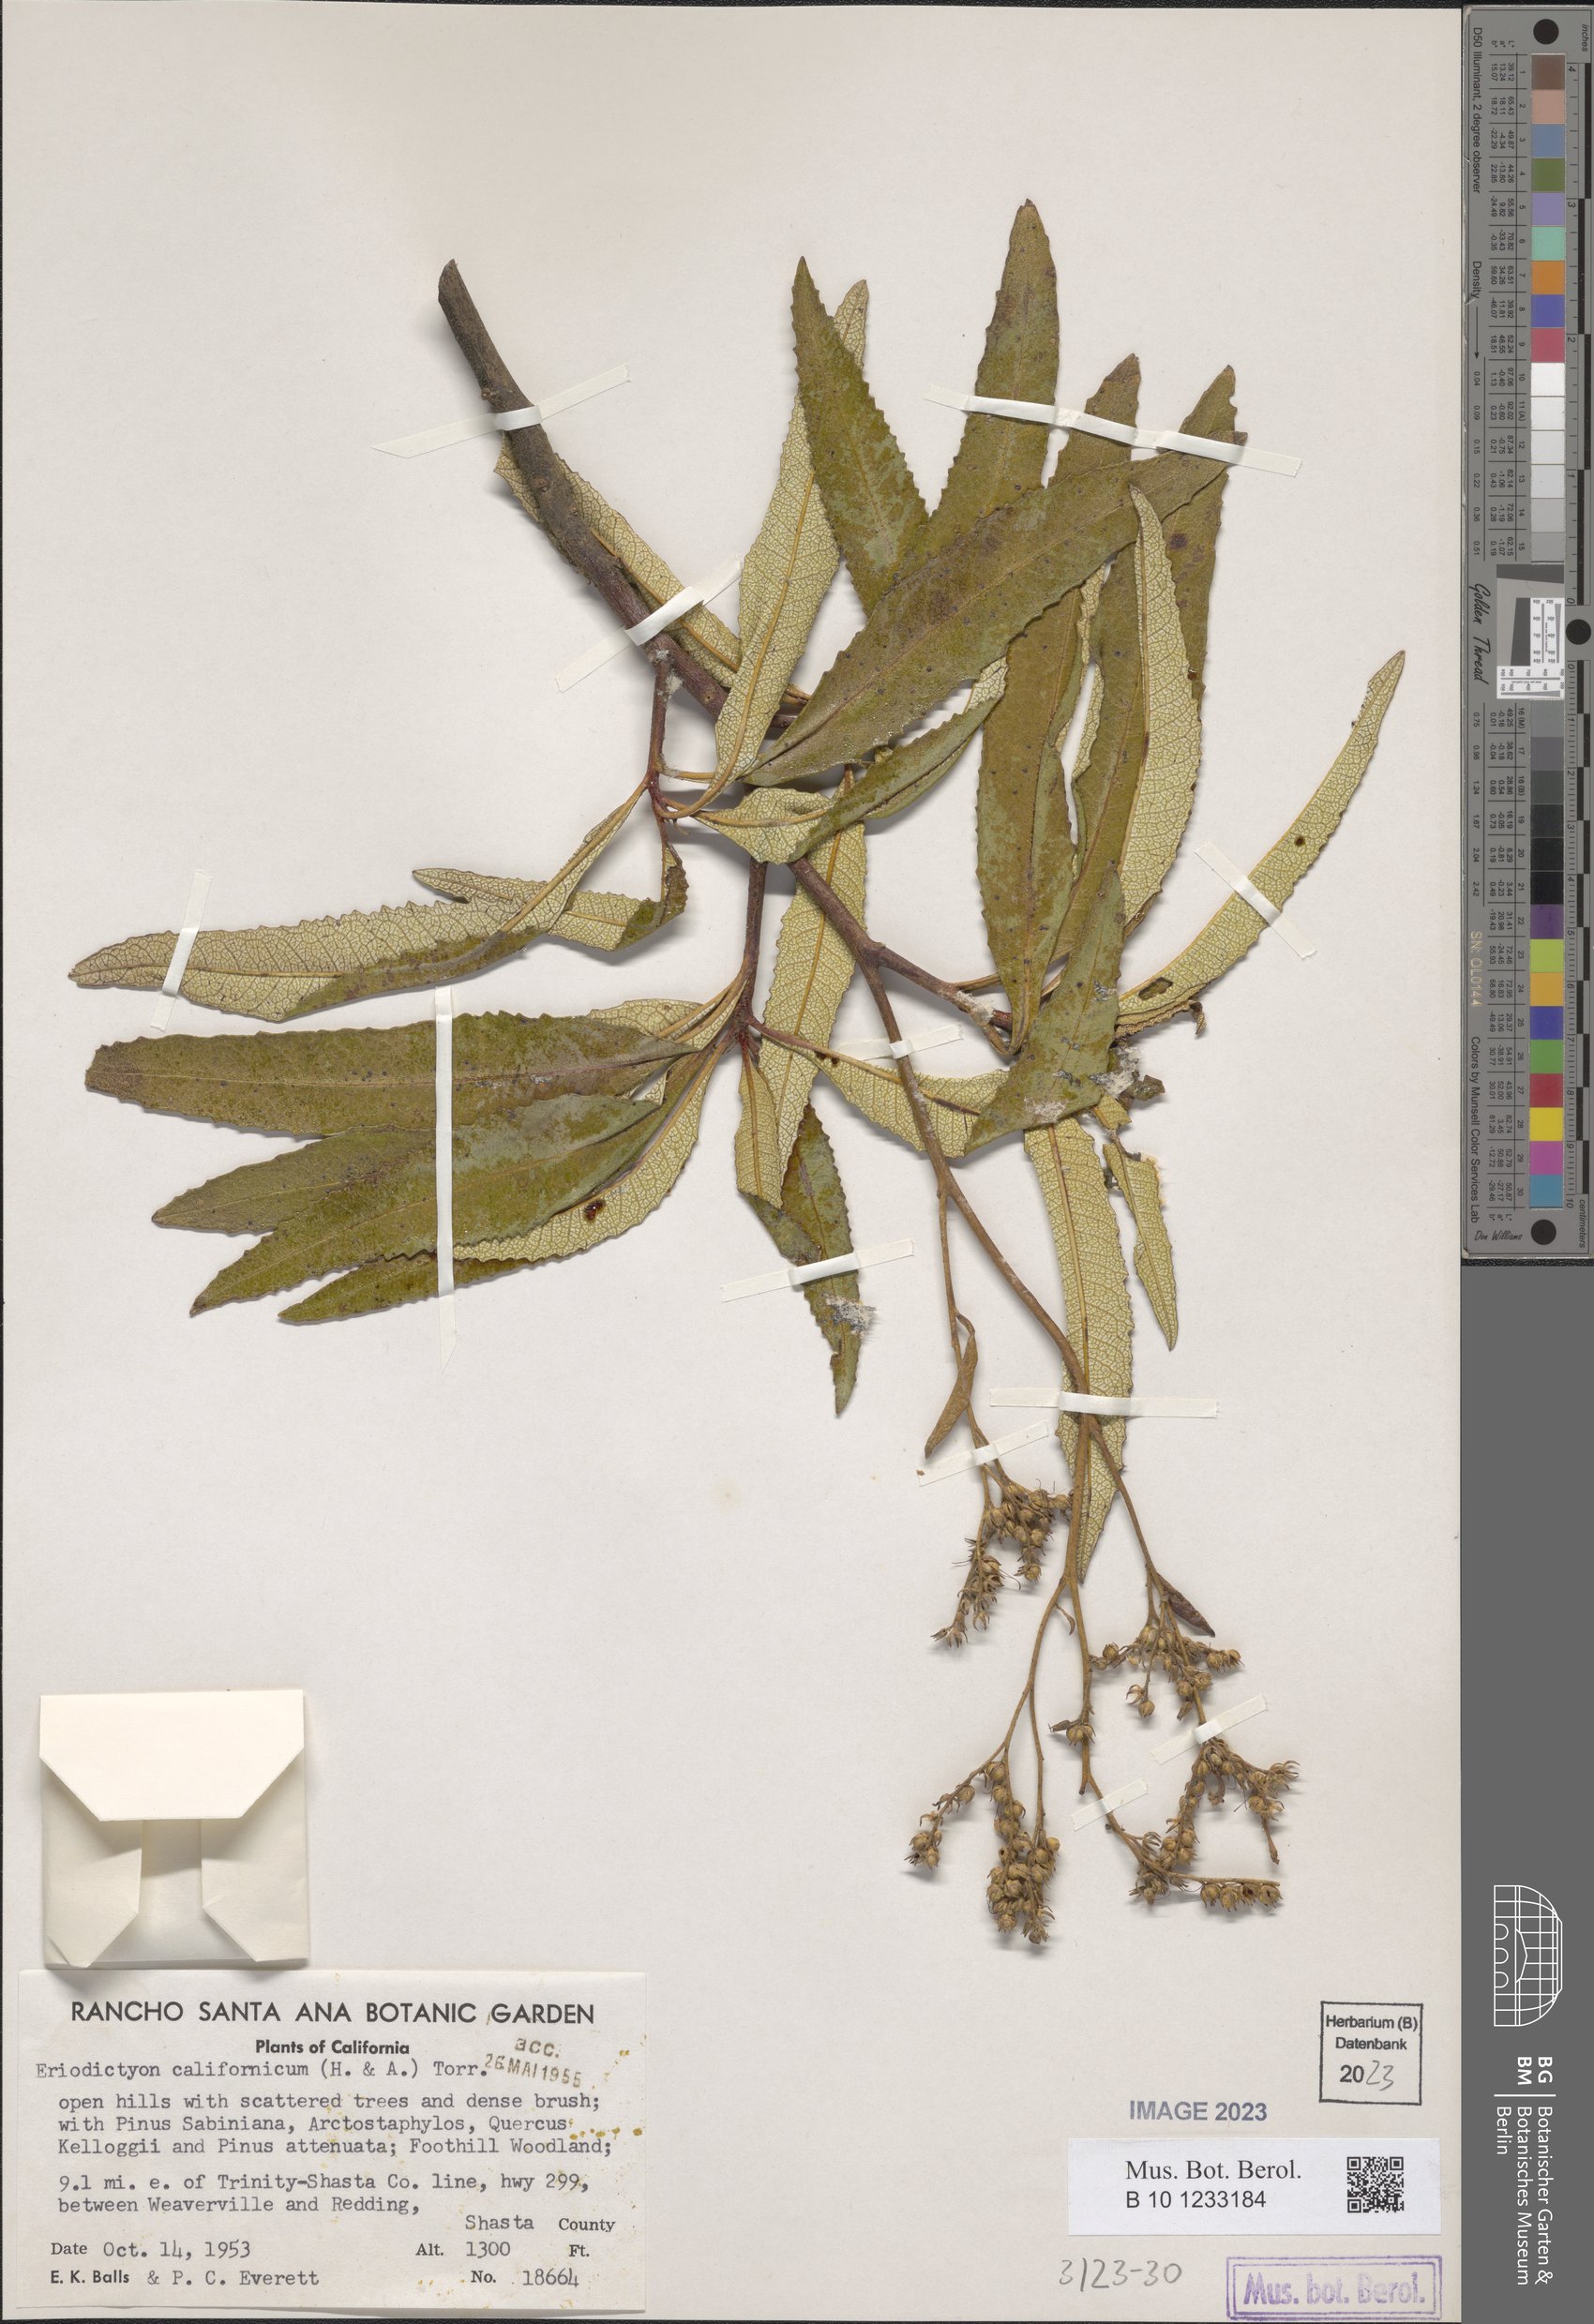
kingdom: Plantae
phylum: Tracheophyta
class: Magnoliopsida
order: Boraginales
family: Namaceae
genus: Eriodictyon
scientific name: Eriodictyon crassifolium
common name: Thick-leaf yerba-santa
